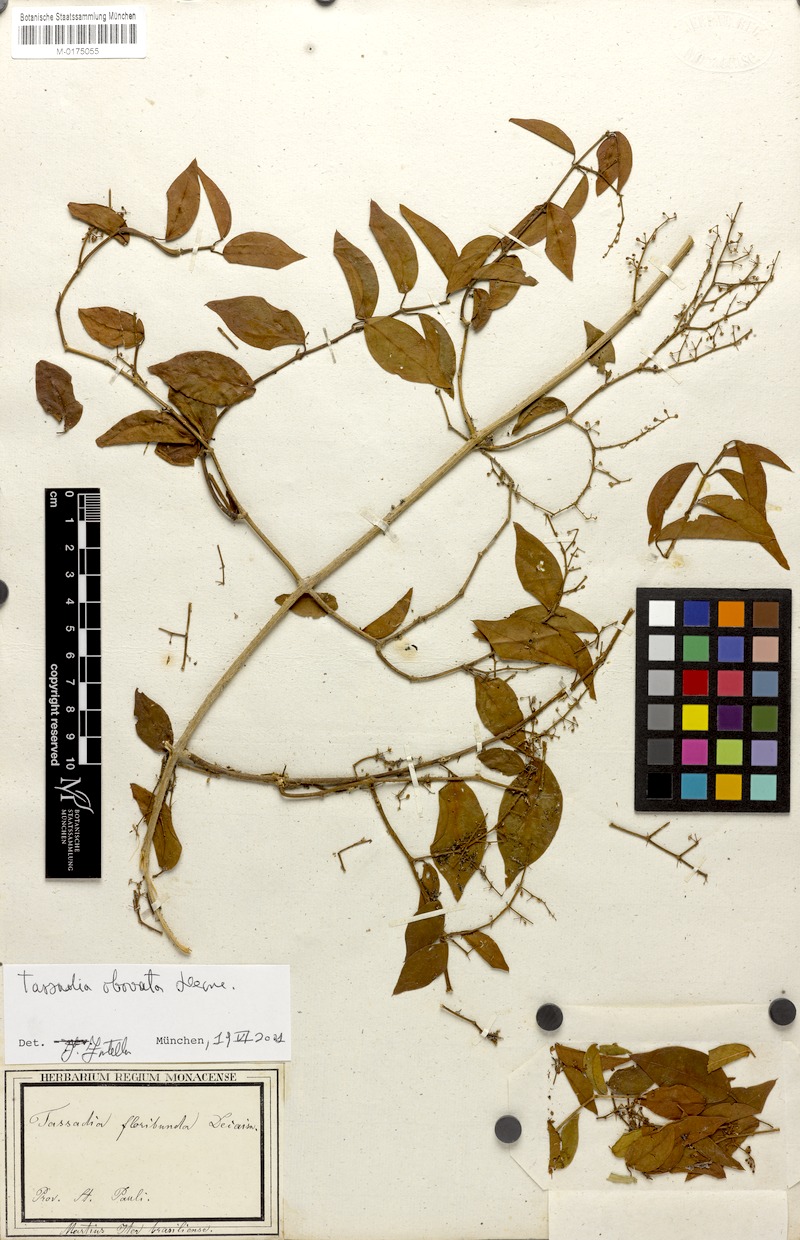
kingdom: Plantae
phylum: Tracheophyta
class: Magnoliopsida
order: Gentianales
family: Apocynaceae
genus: Tassadia
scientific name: Tassadia obovata
